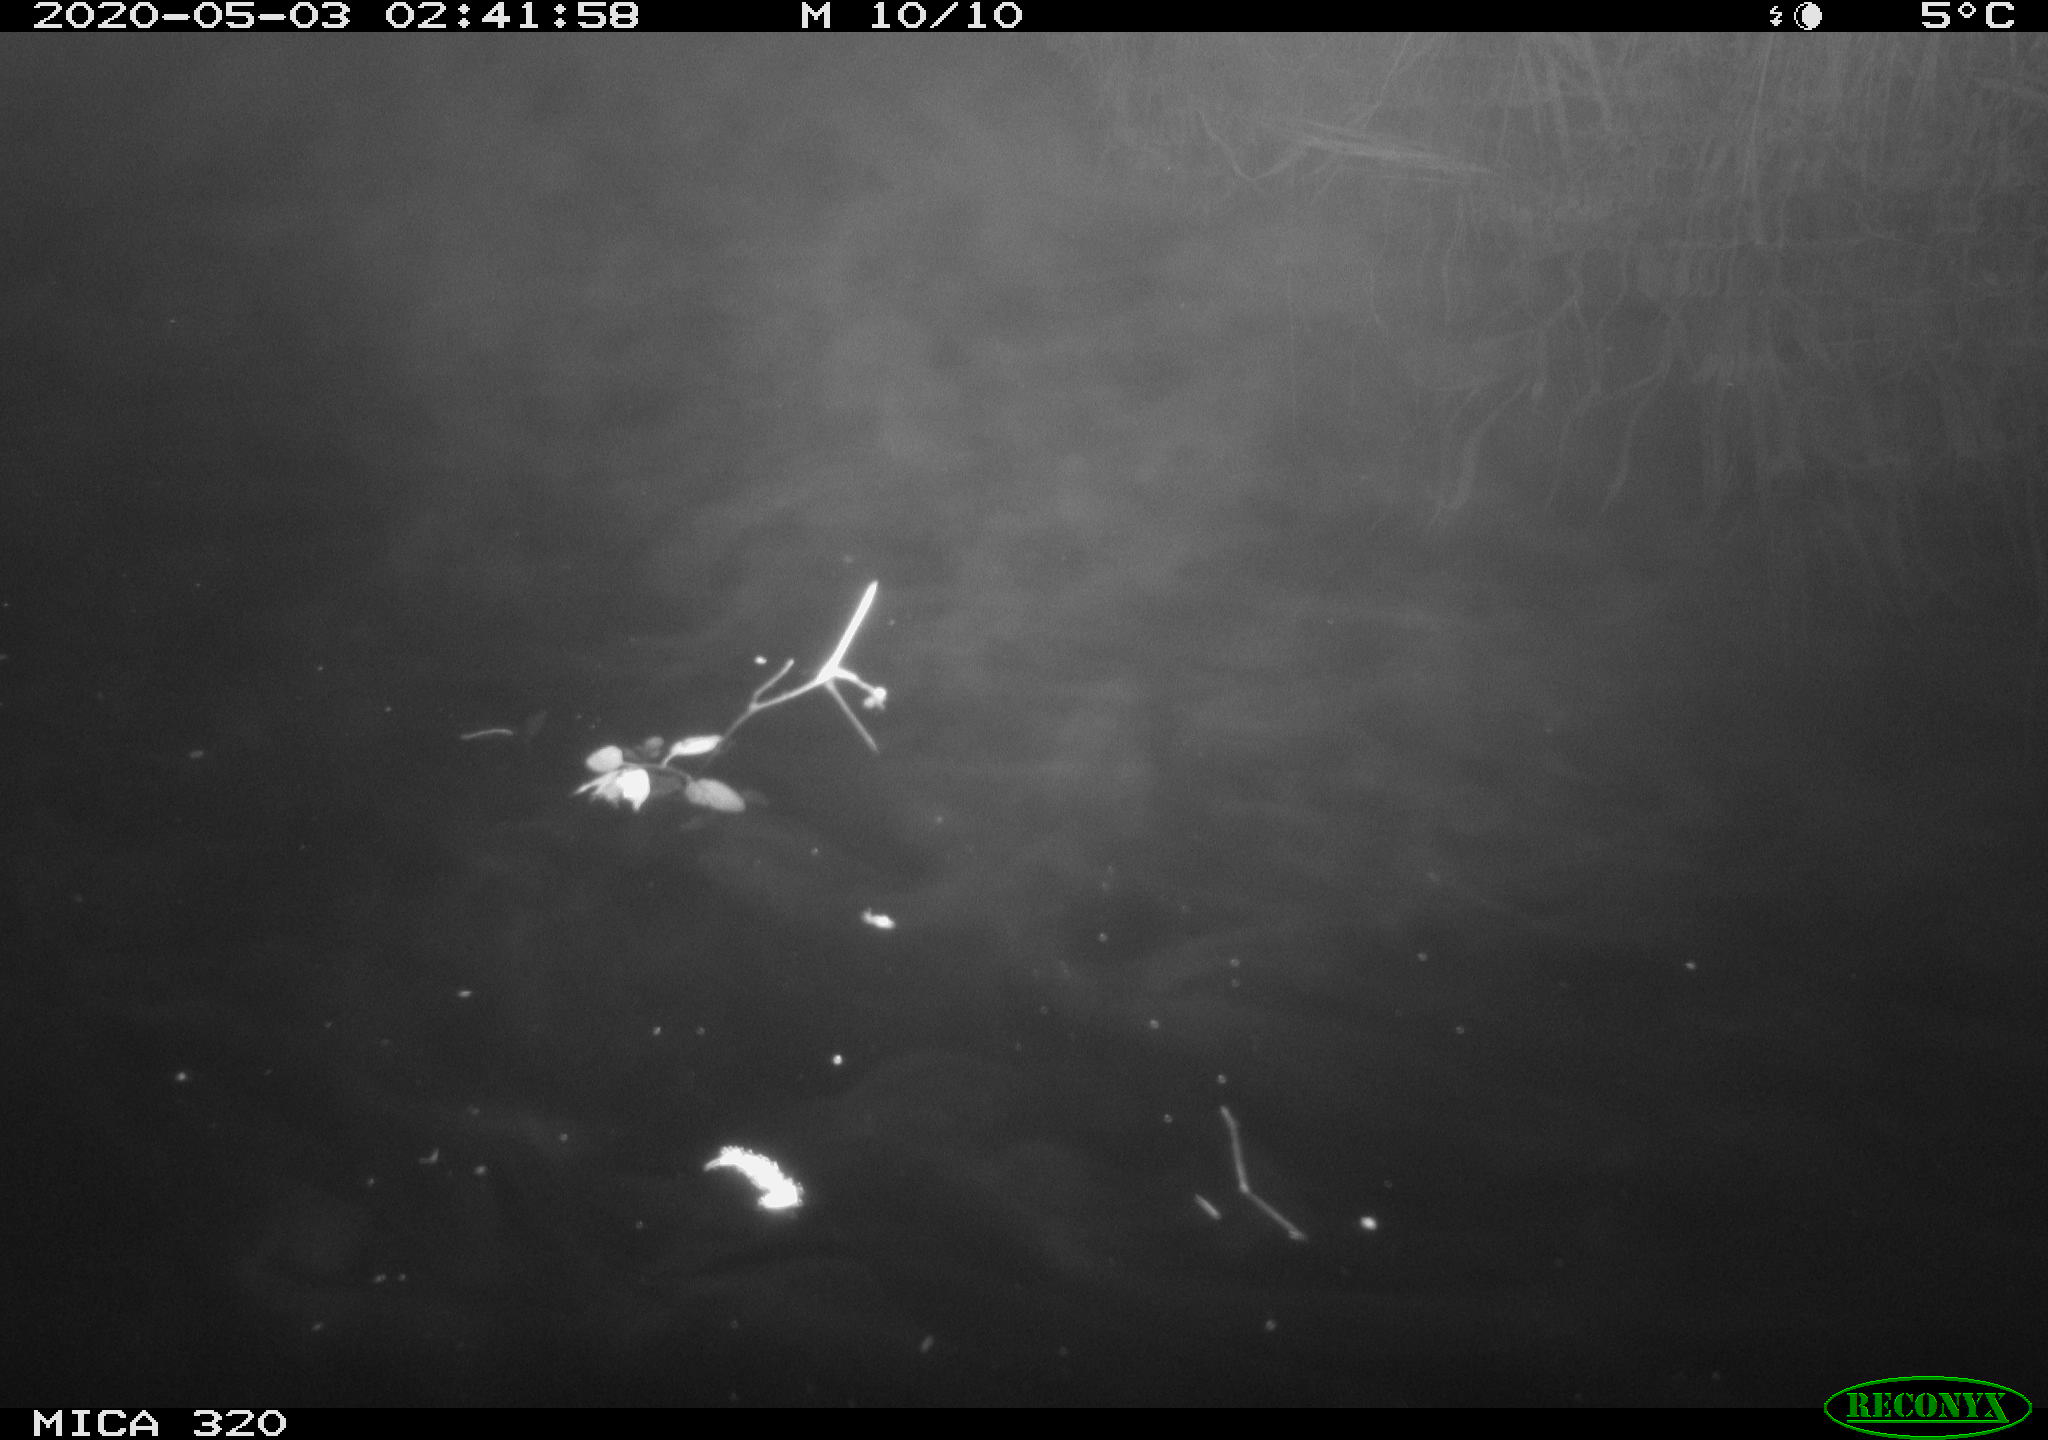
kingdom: Animalia
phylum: Chordata
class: Aves
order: Anseriformes
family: Anatidae
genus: Anas
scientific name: Anas platyrhynchos
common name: Mallard
